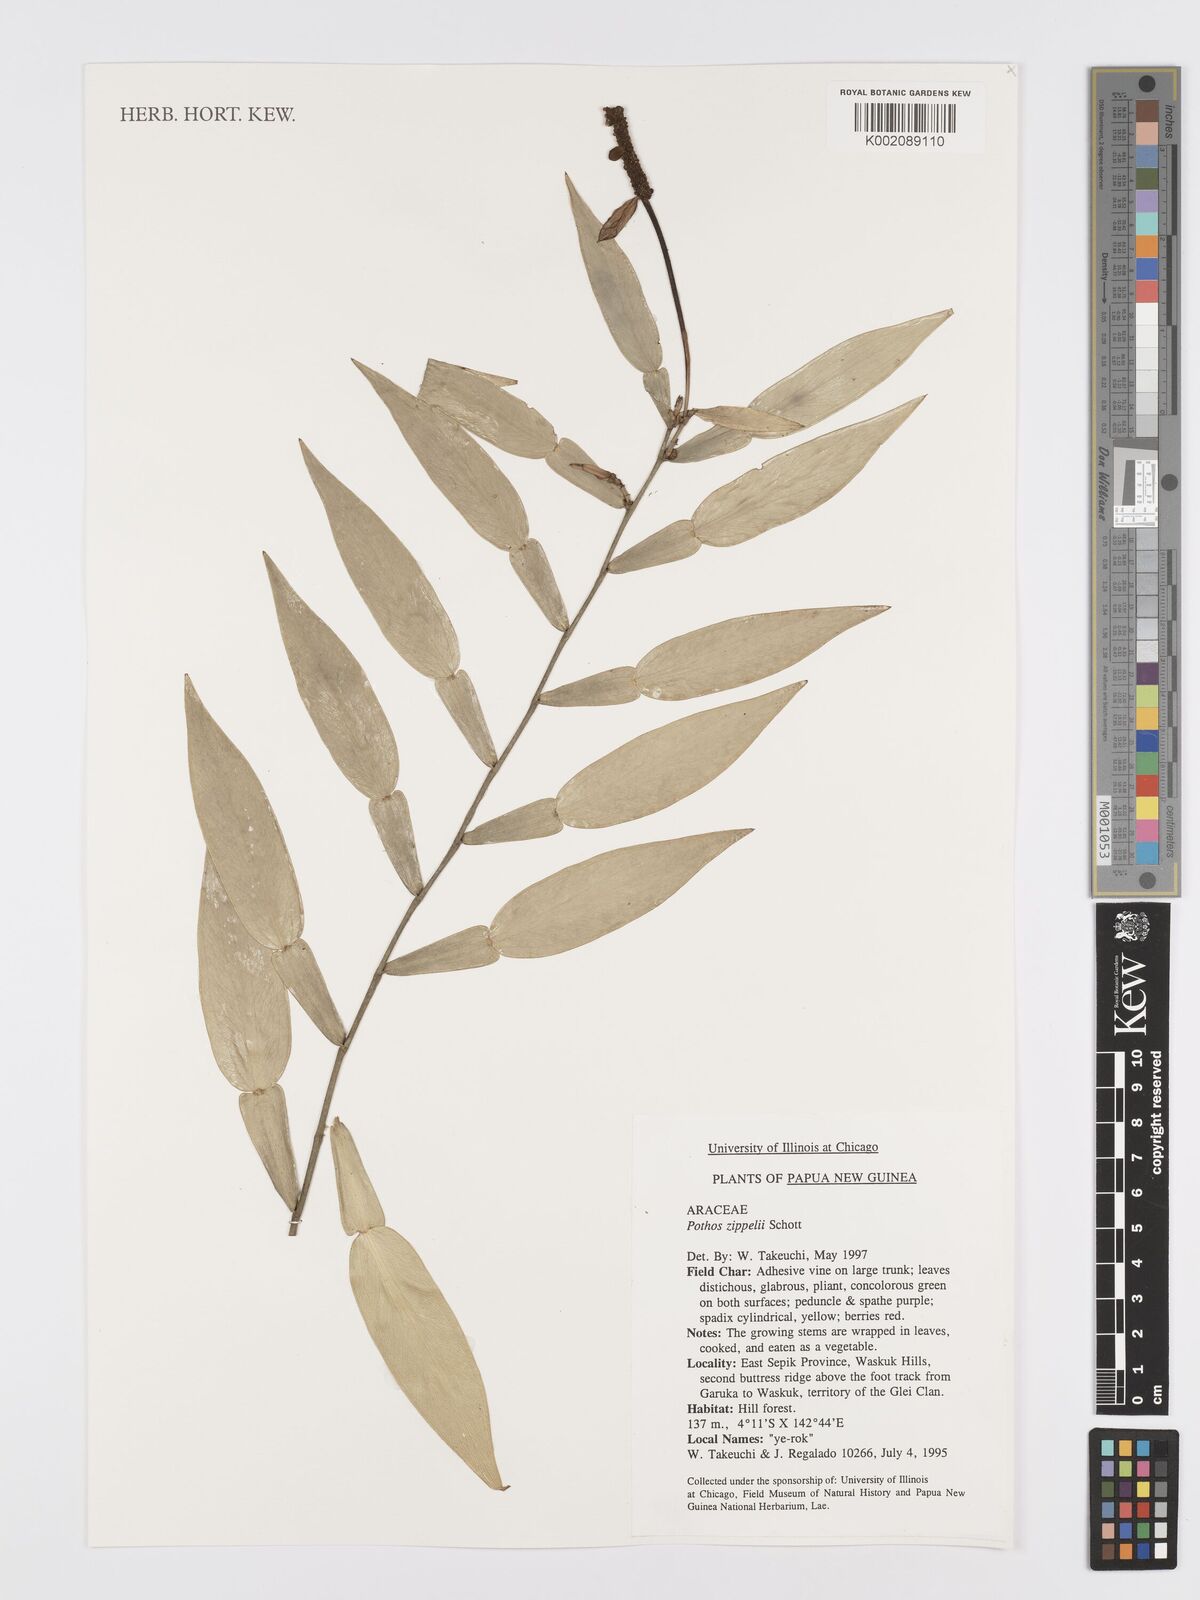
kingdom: Plantae
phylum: Tracheophyta
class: Liliopsida
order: Alismatales
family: Araceae
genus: Pothos
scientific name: Pothos zippelii
